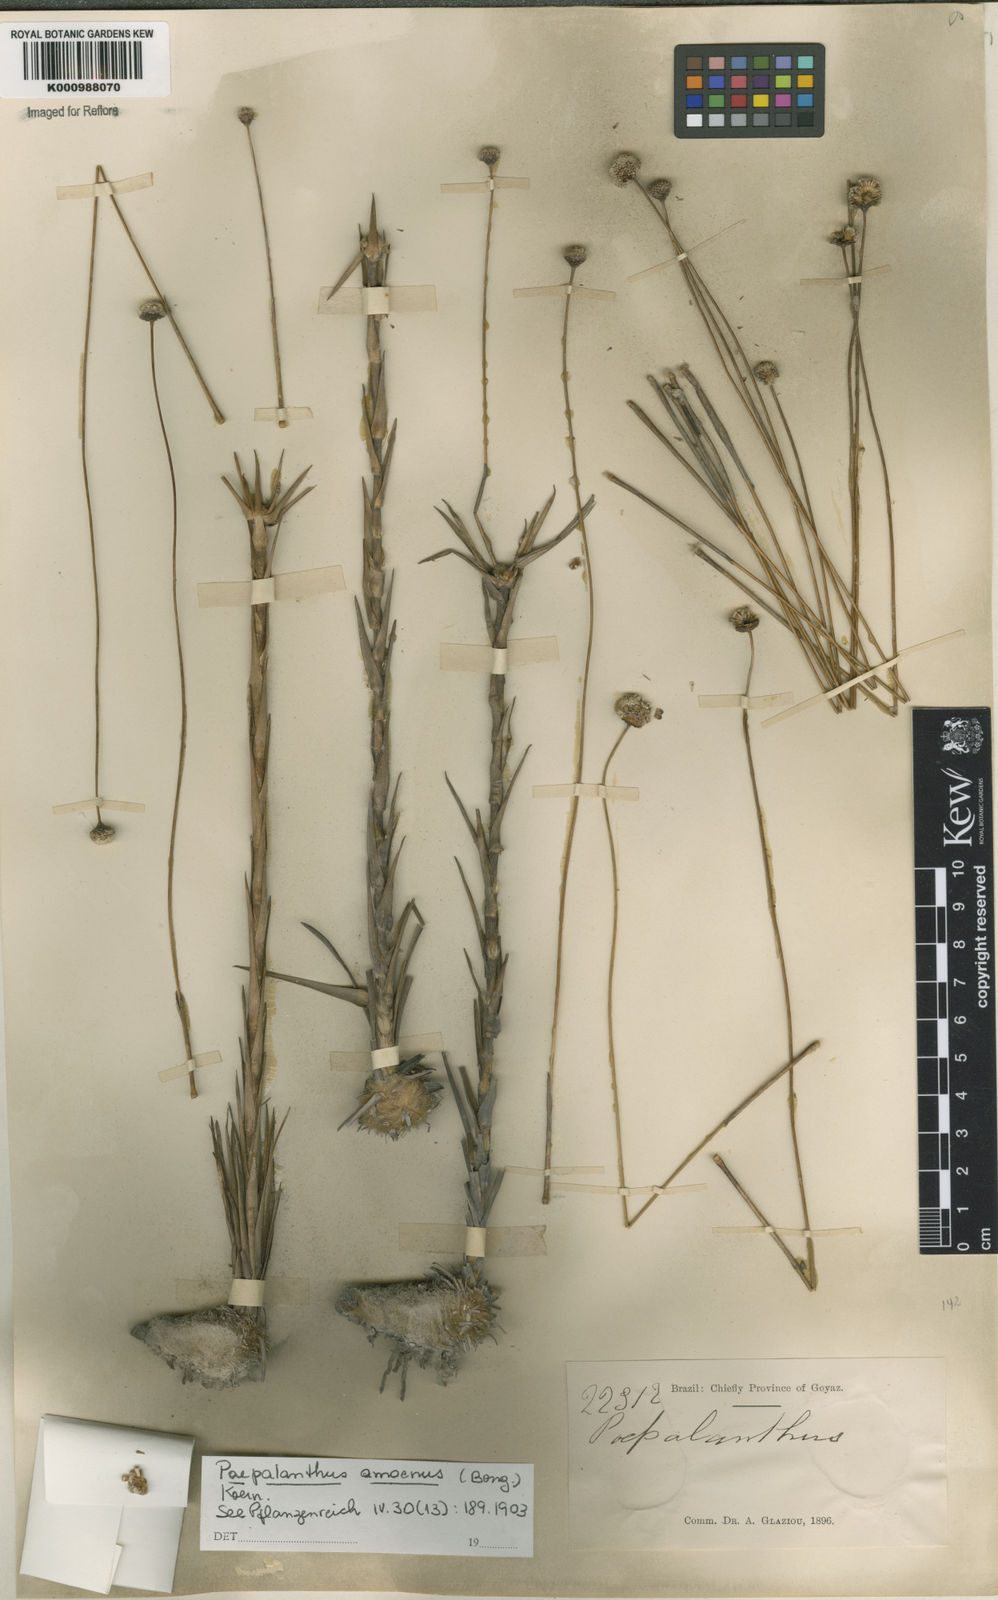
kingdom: Plantae
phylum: Tracheophyta
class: Liliopsida
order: Poales
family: Eriocaulaceae
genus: Paepalanthus
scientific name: Paepalanthus
